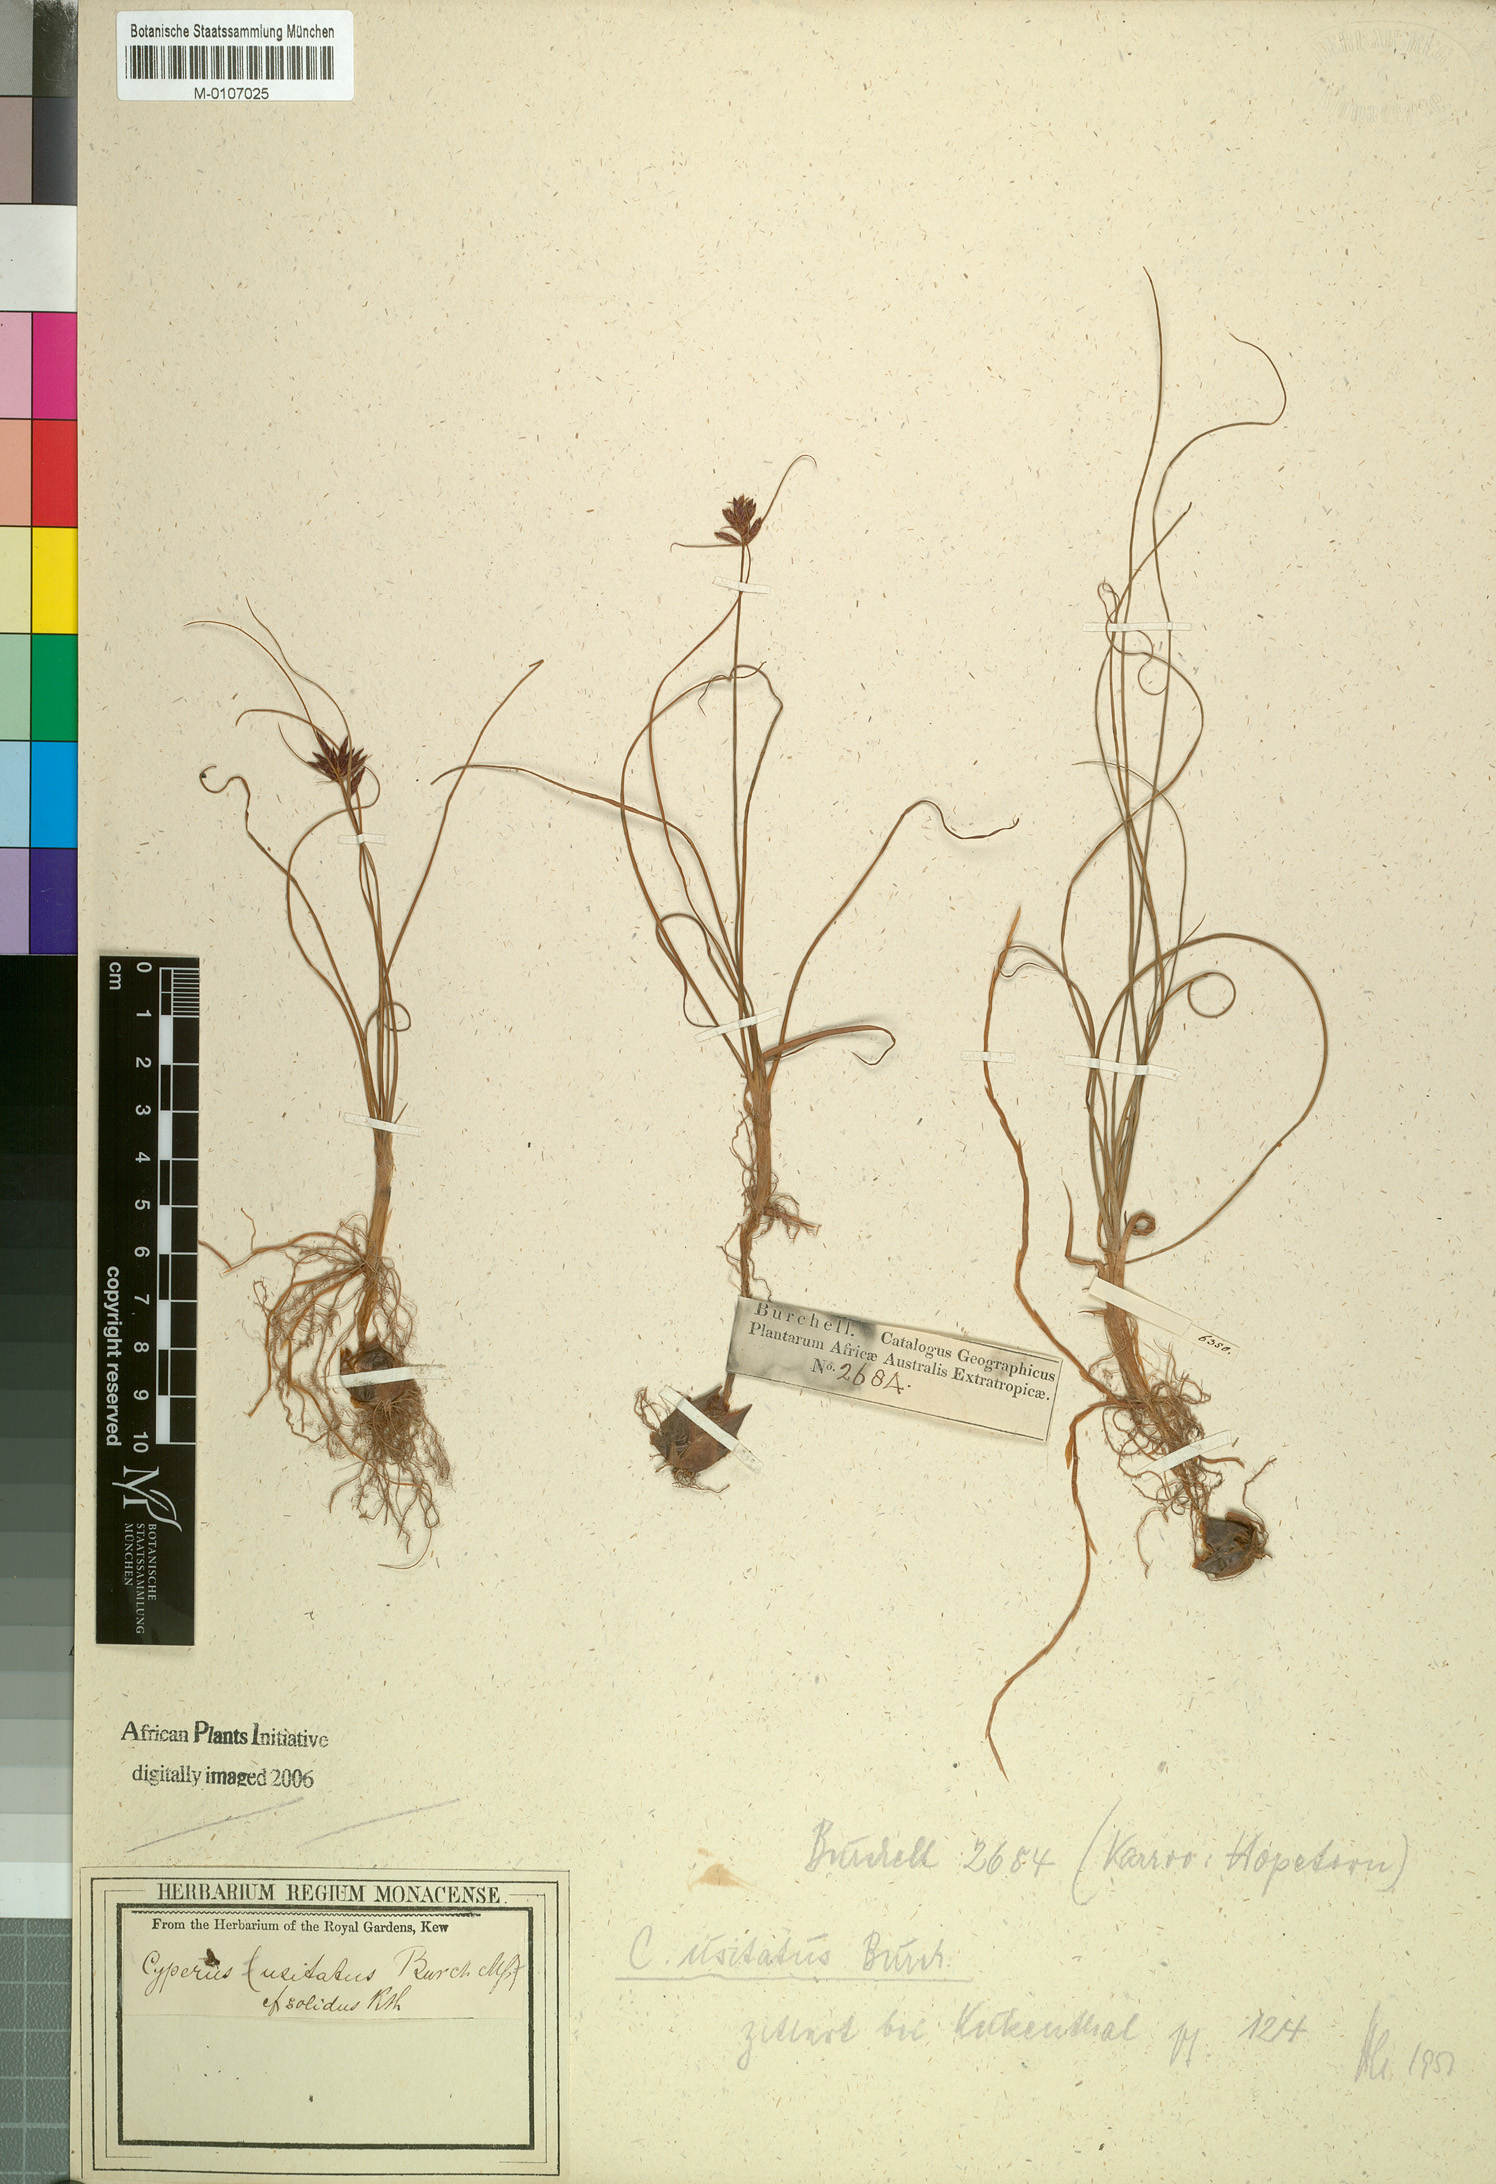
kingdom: Plantae
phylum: Tracheophyta
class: Liliopsida
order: Poales
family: Cyperaceae
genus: Cyperus
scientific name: Cyperus usitatus
